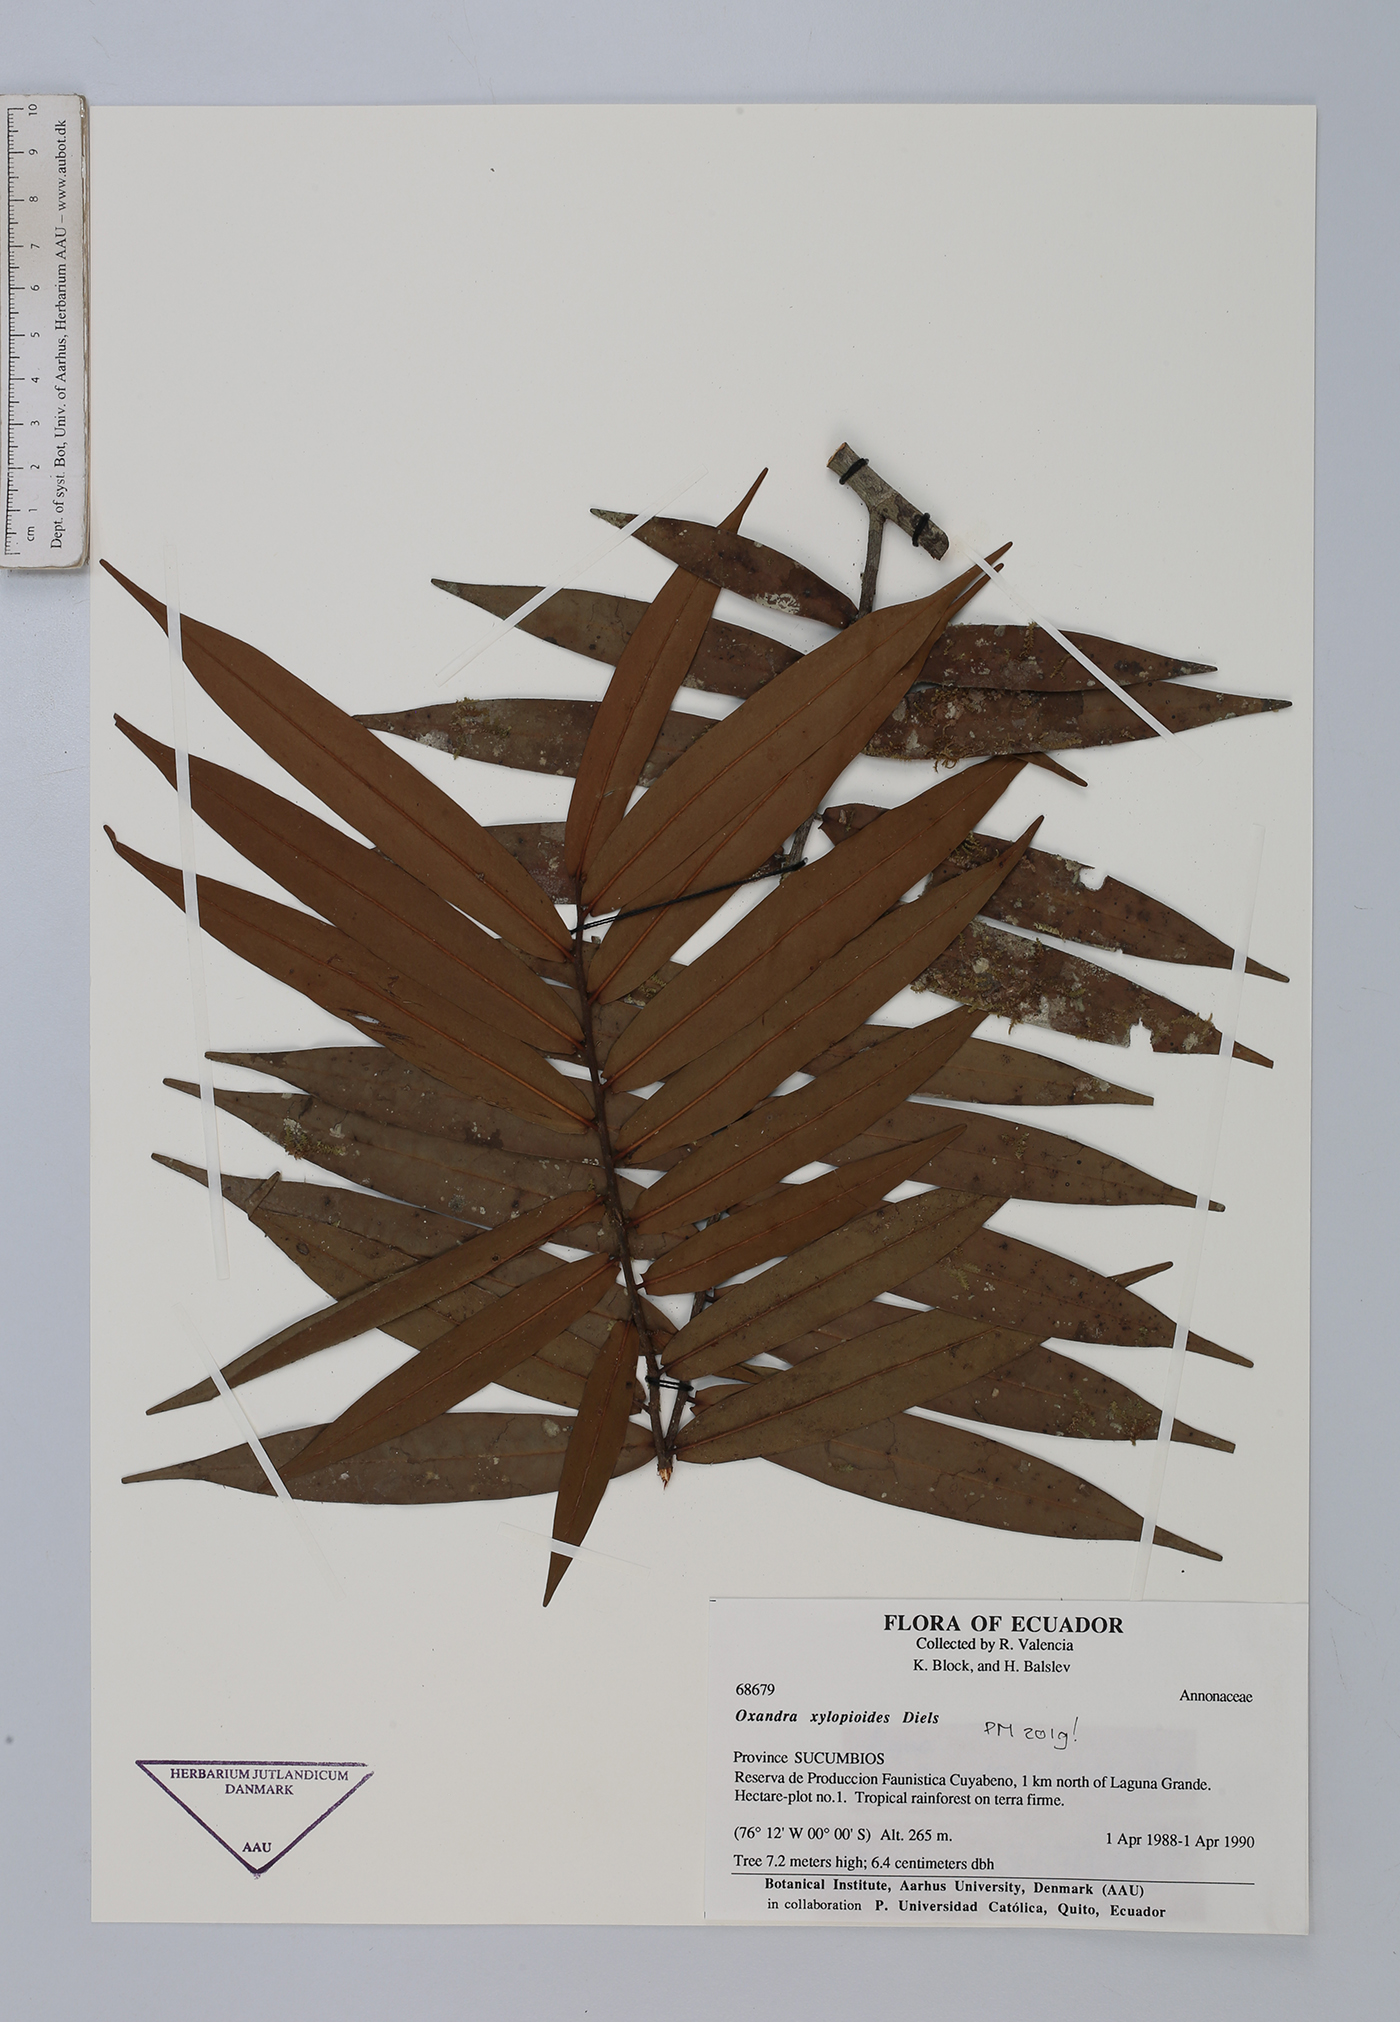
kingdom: Plantae
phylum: Tracheophyta
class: Magnoliopsida
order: Magnoliales
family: Annonaceae
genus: Oxandra
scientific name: Oxandra xylopioides
